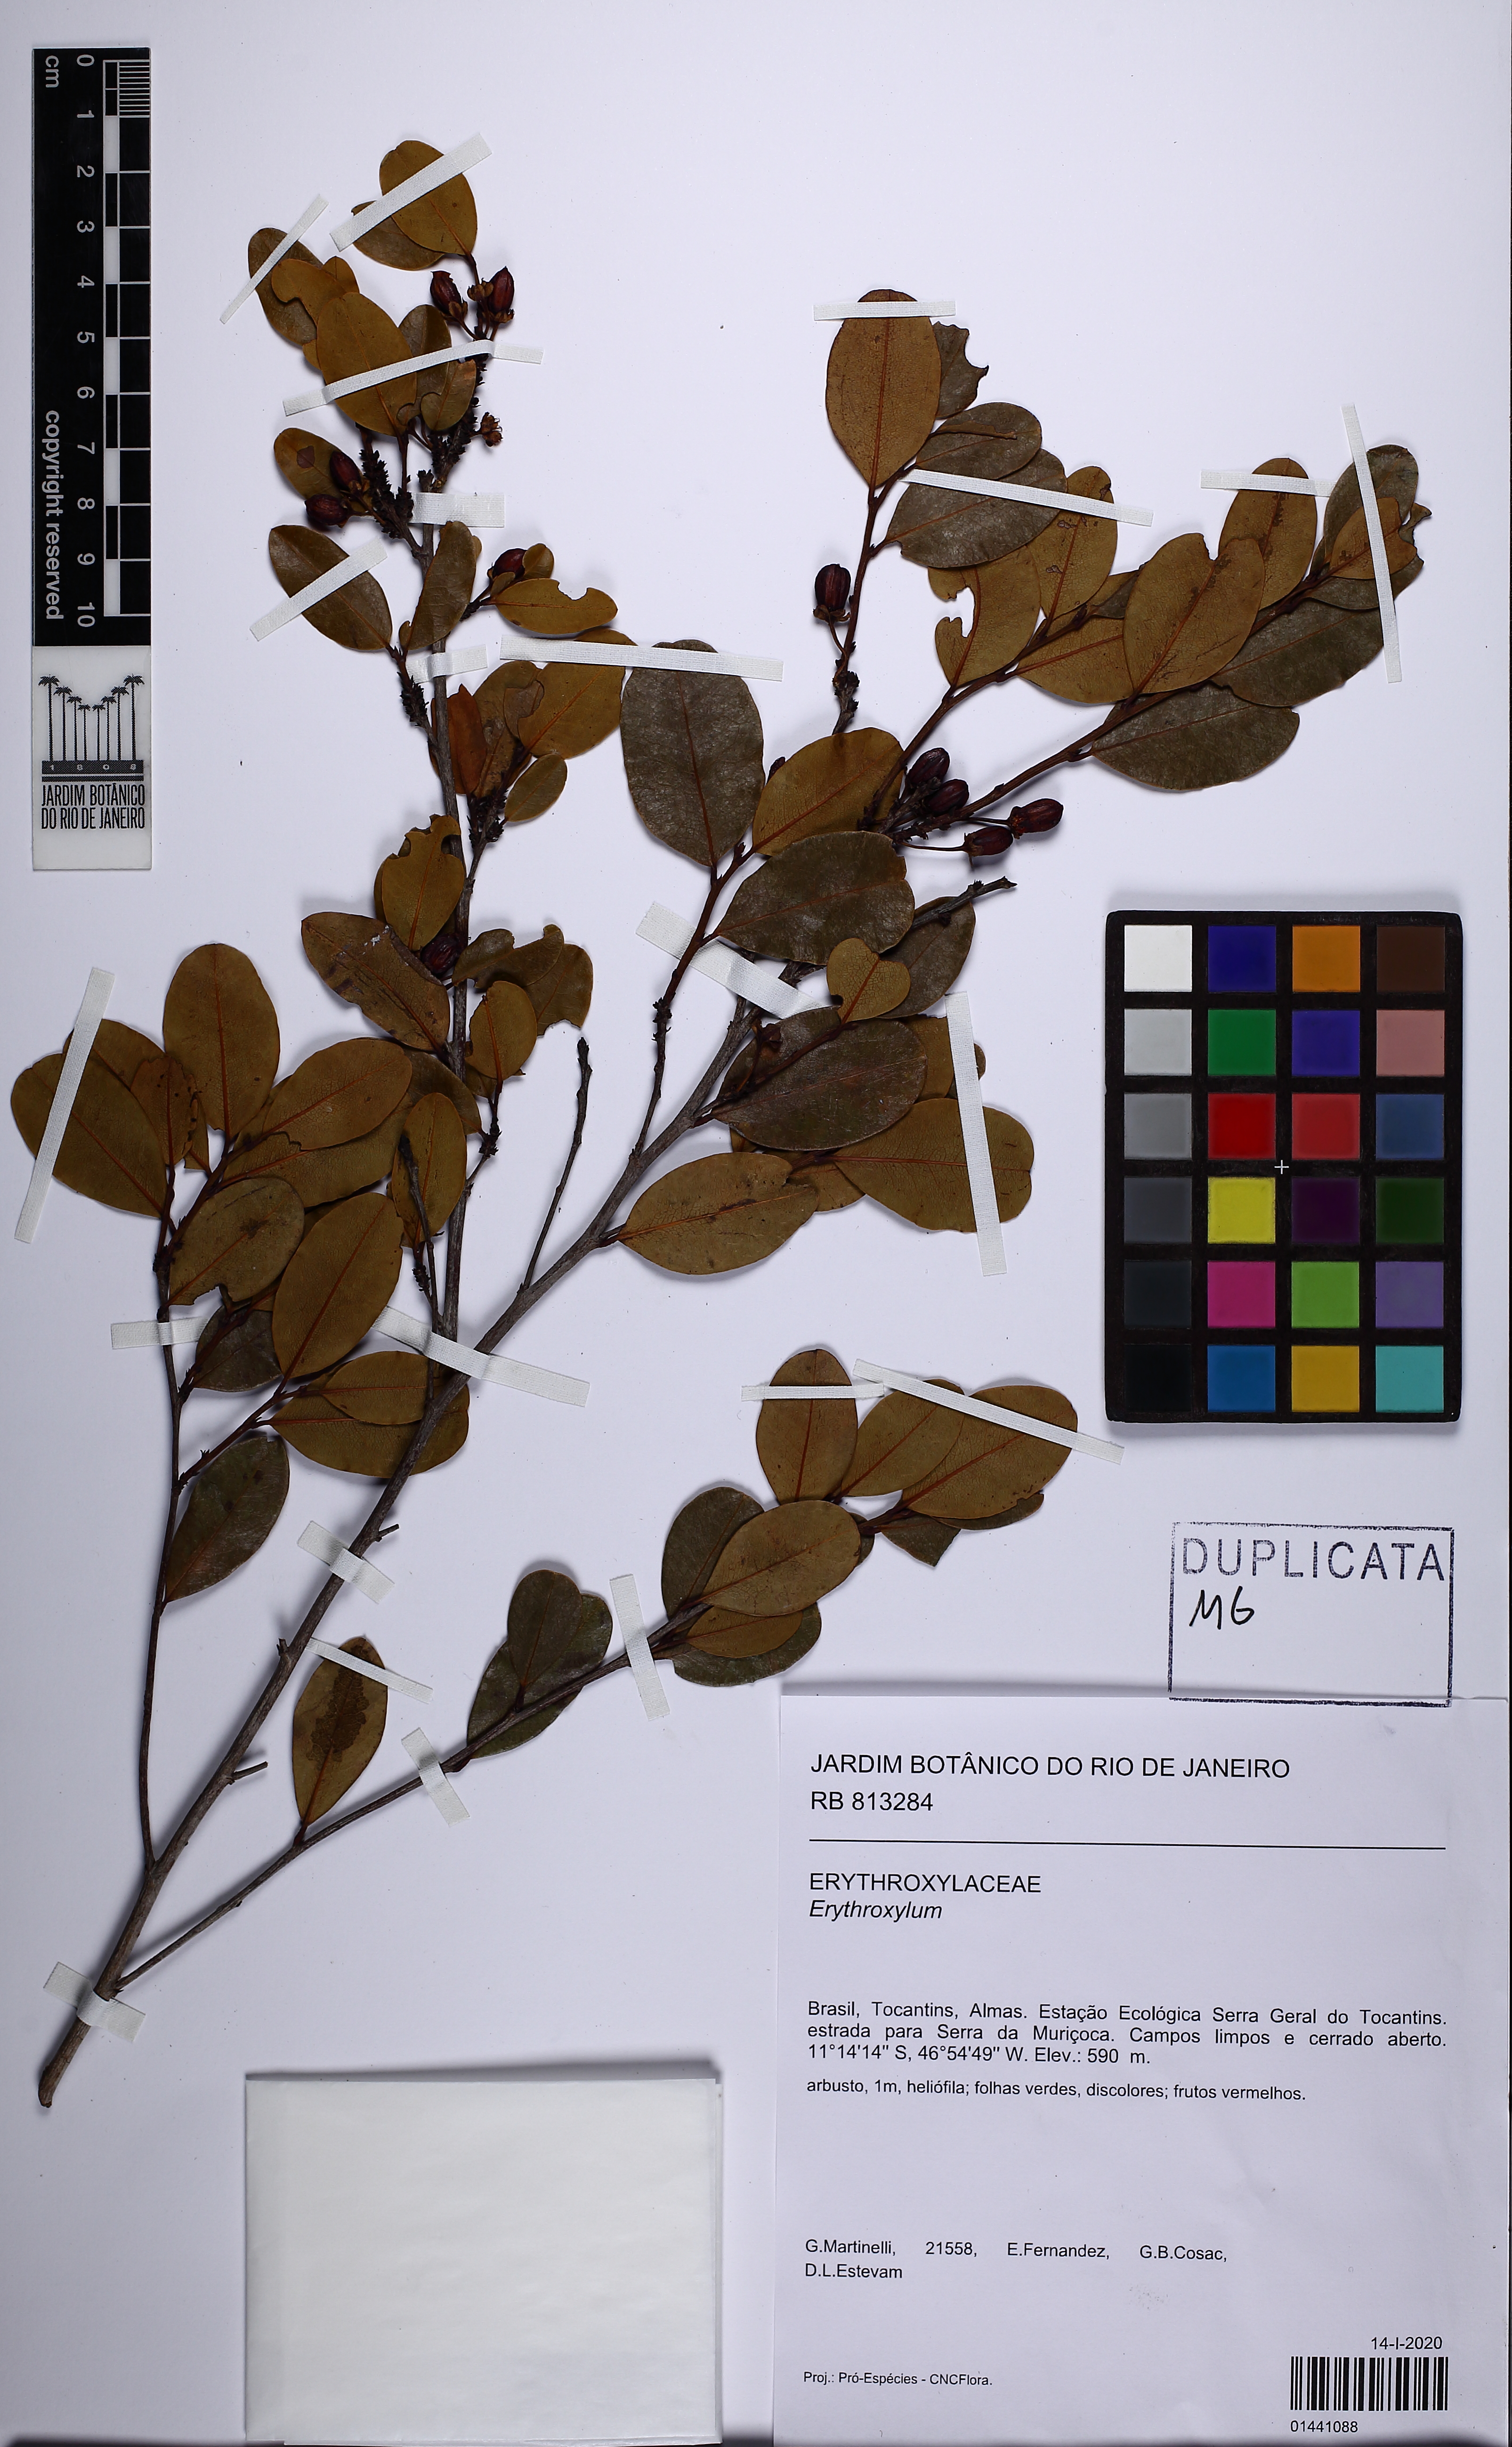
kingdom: Plantae
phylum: Tracheophyta
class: Magnoliopsida
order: Malpighiales
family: Erythroxylaceae
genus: Erythroxylum
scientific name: Erythroxylum
